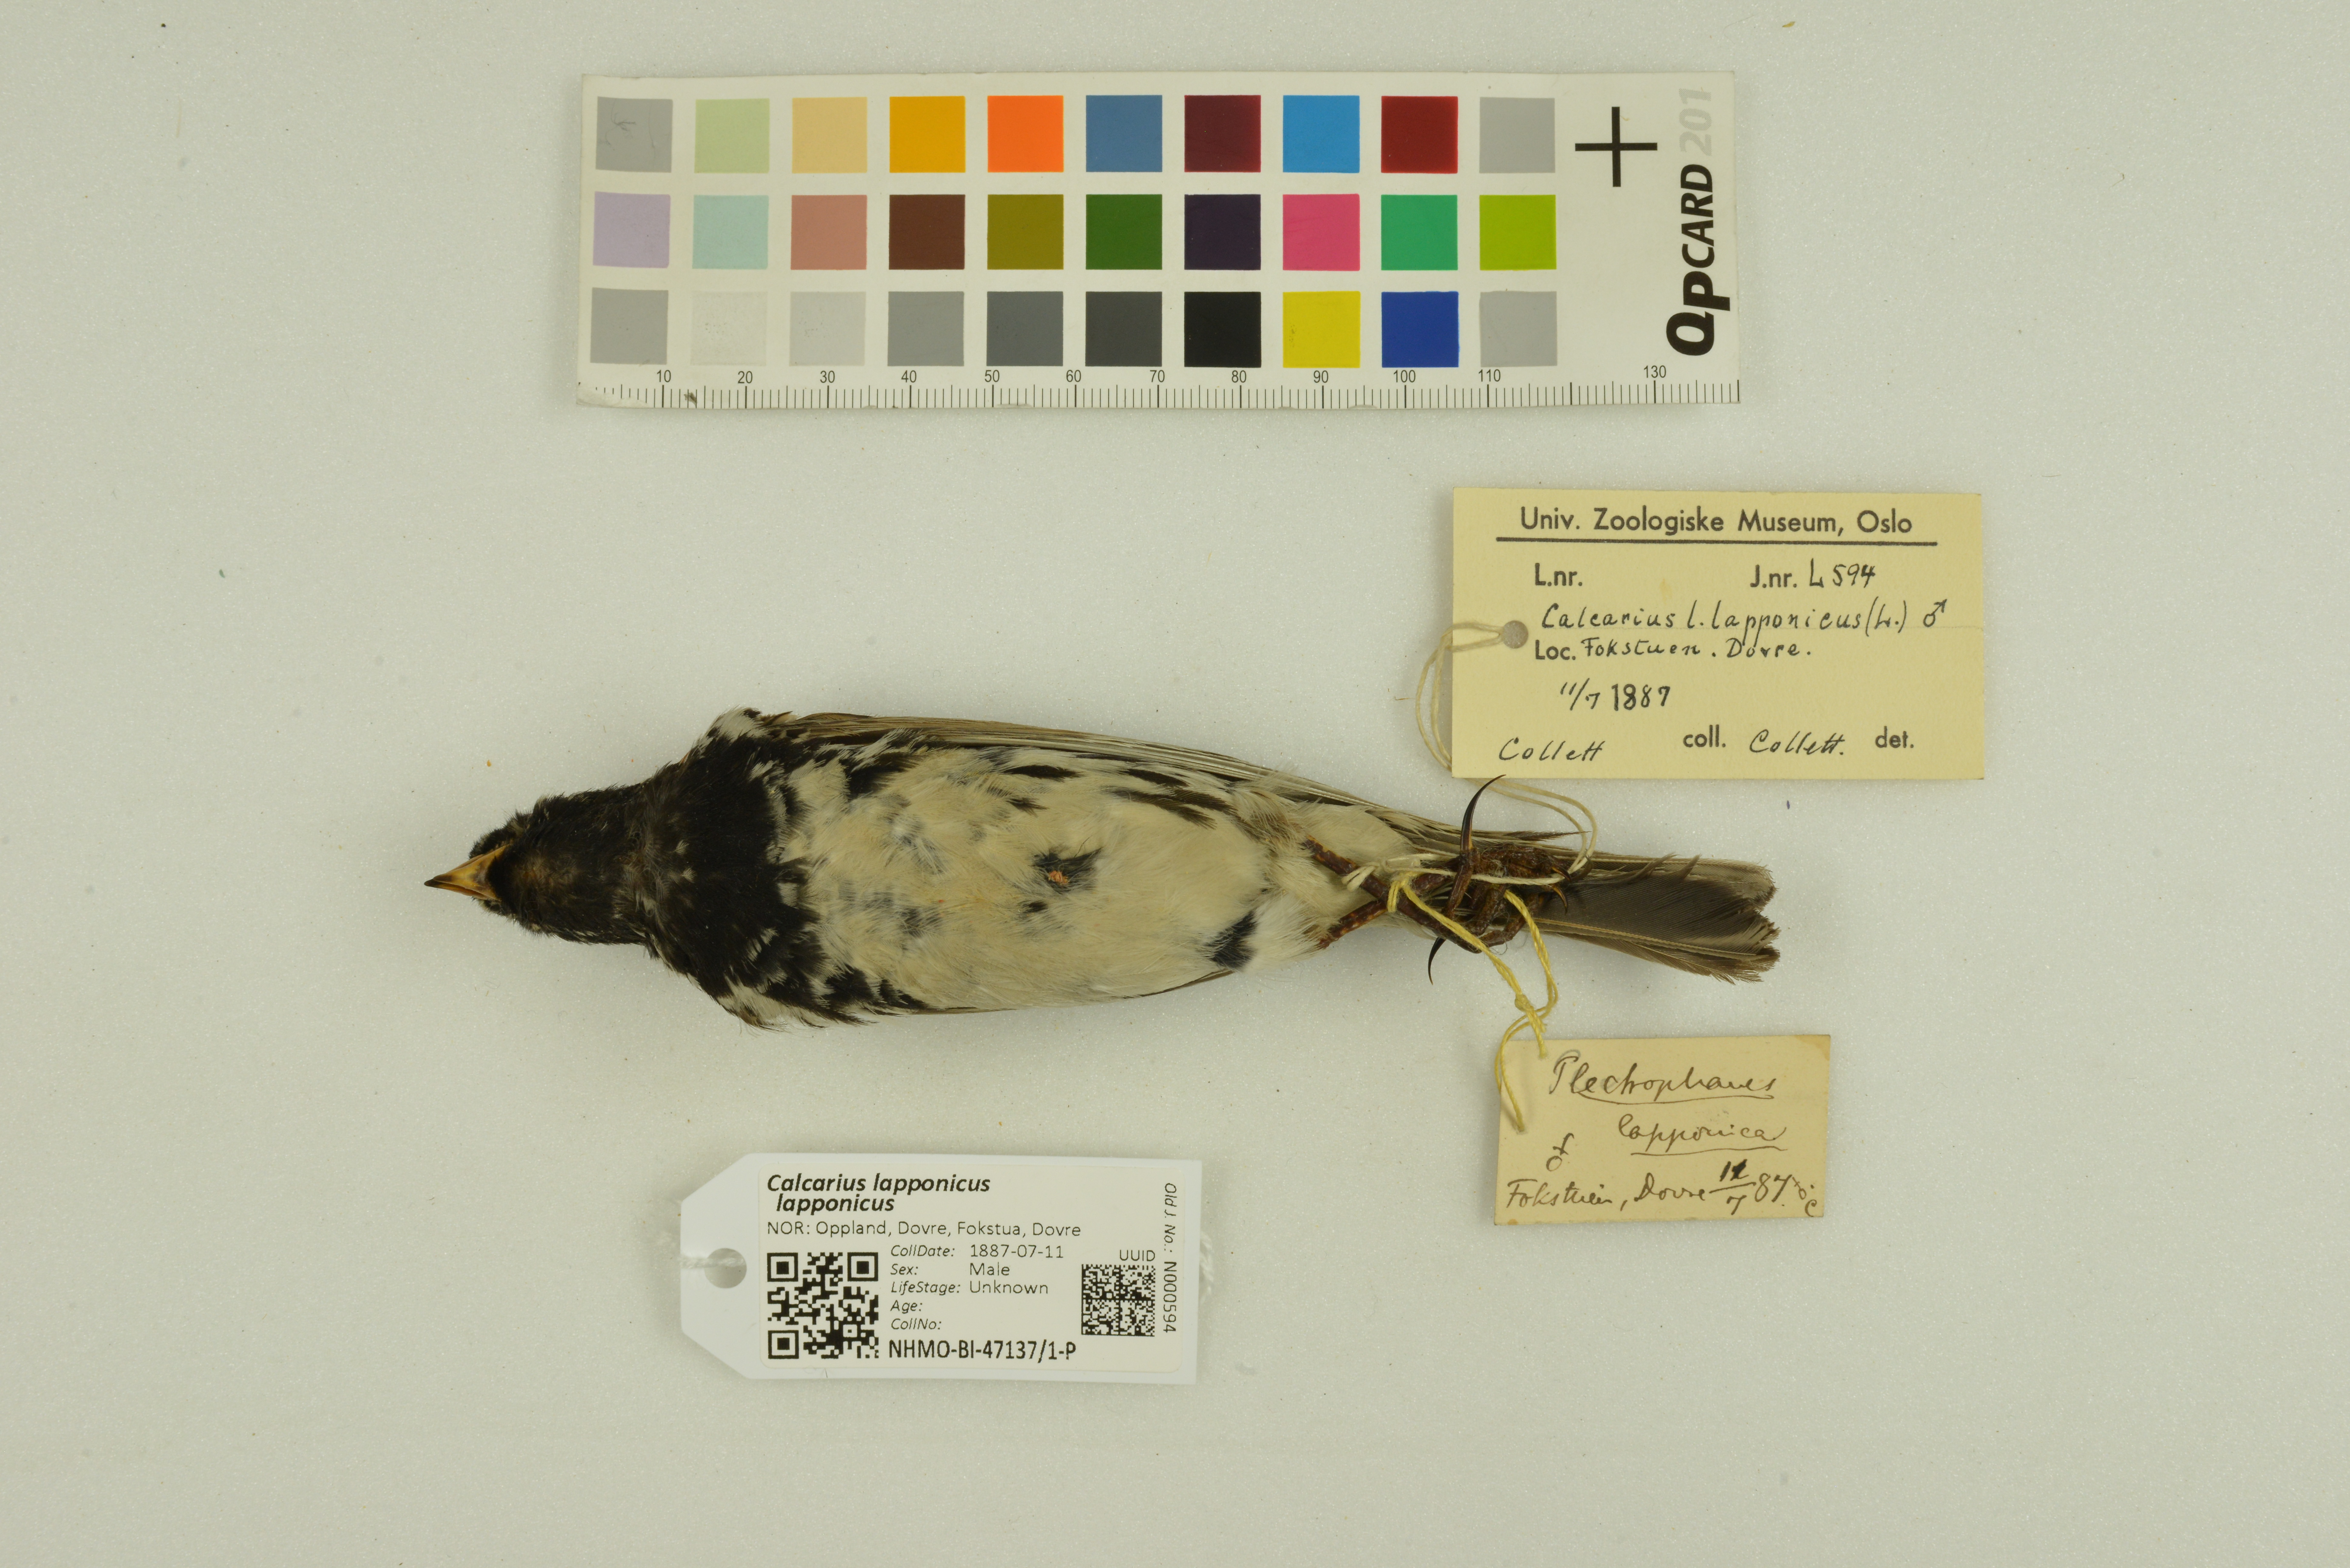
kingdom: Animalia
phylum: Chordata
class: Aves
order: Passeriformes
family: Calcariidae
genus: Calcarius
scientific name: Calcarius lapponicus
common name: Lapland longspur
